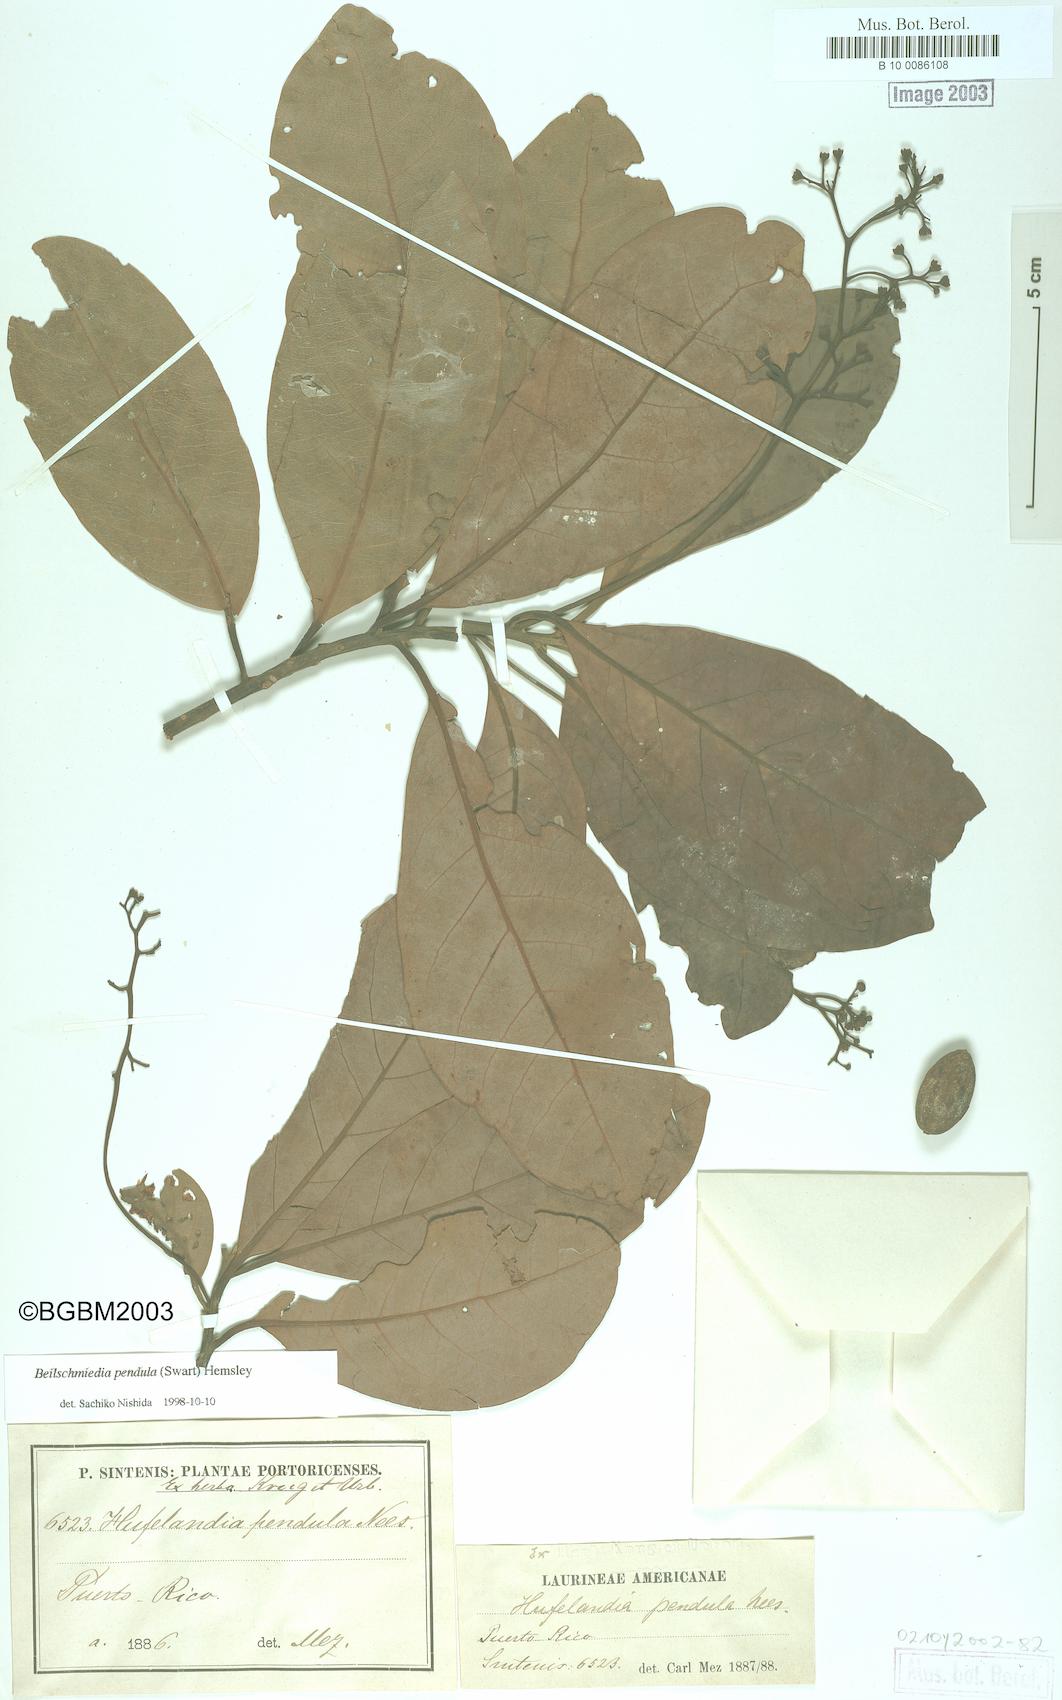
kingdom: Plantae
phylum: Tracheophyta
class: Magnoliopsida
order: Laurales
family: Lauraceae
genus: Beilschmiedia
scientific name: Beilschmiedia pendula
